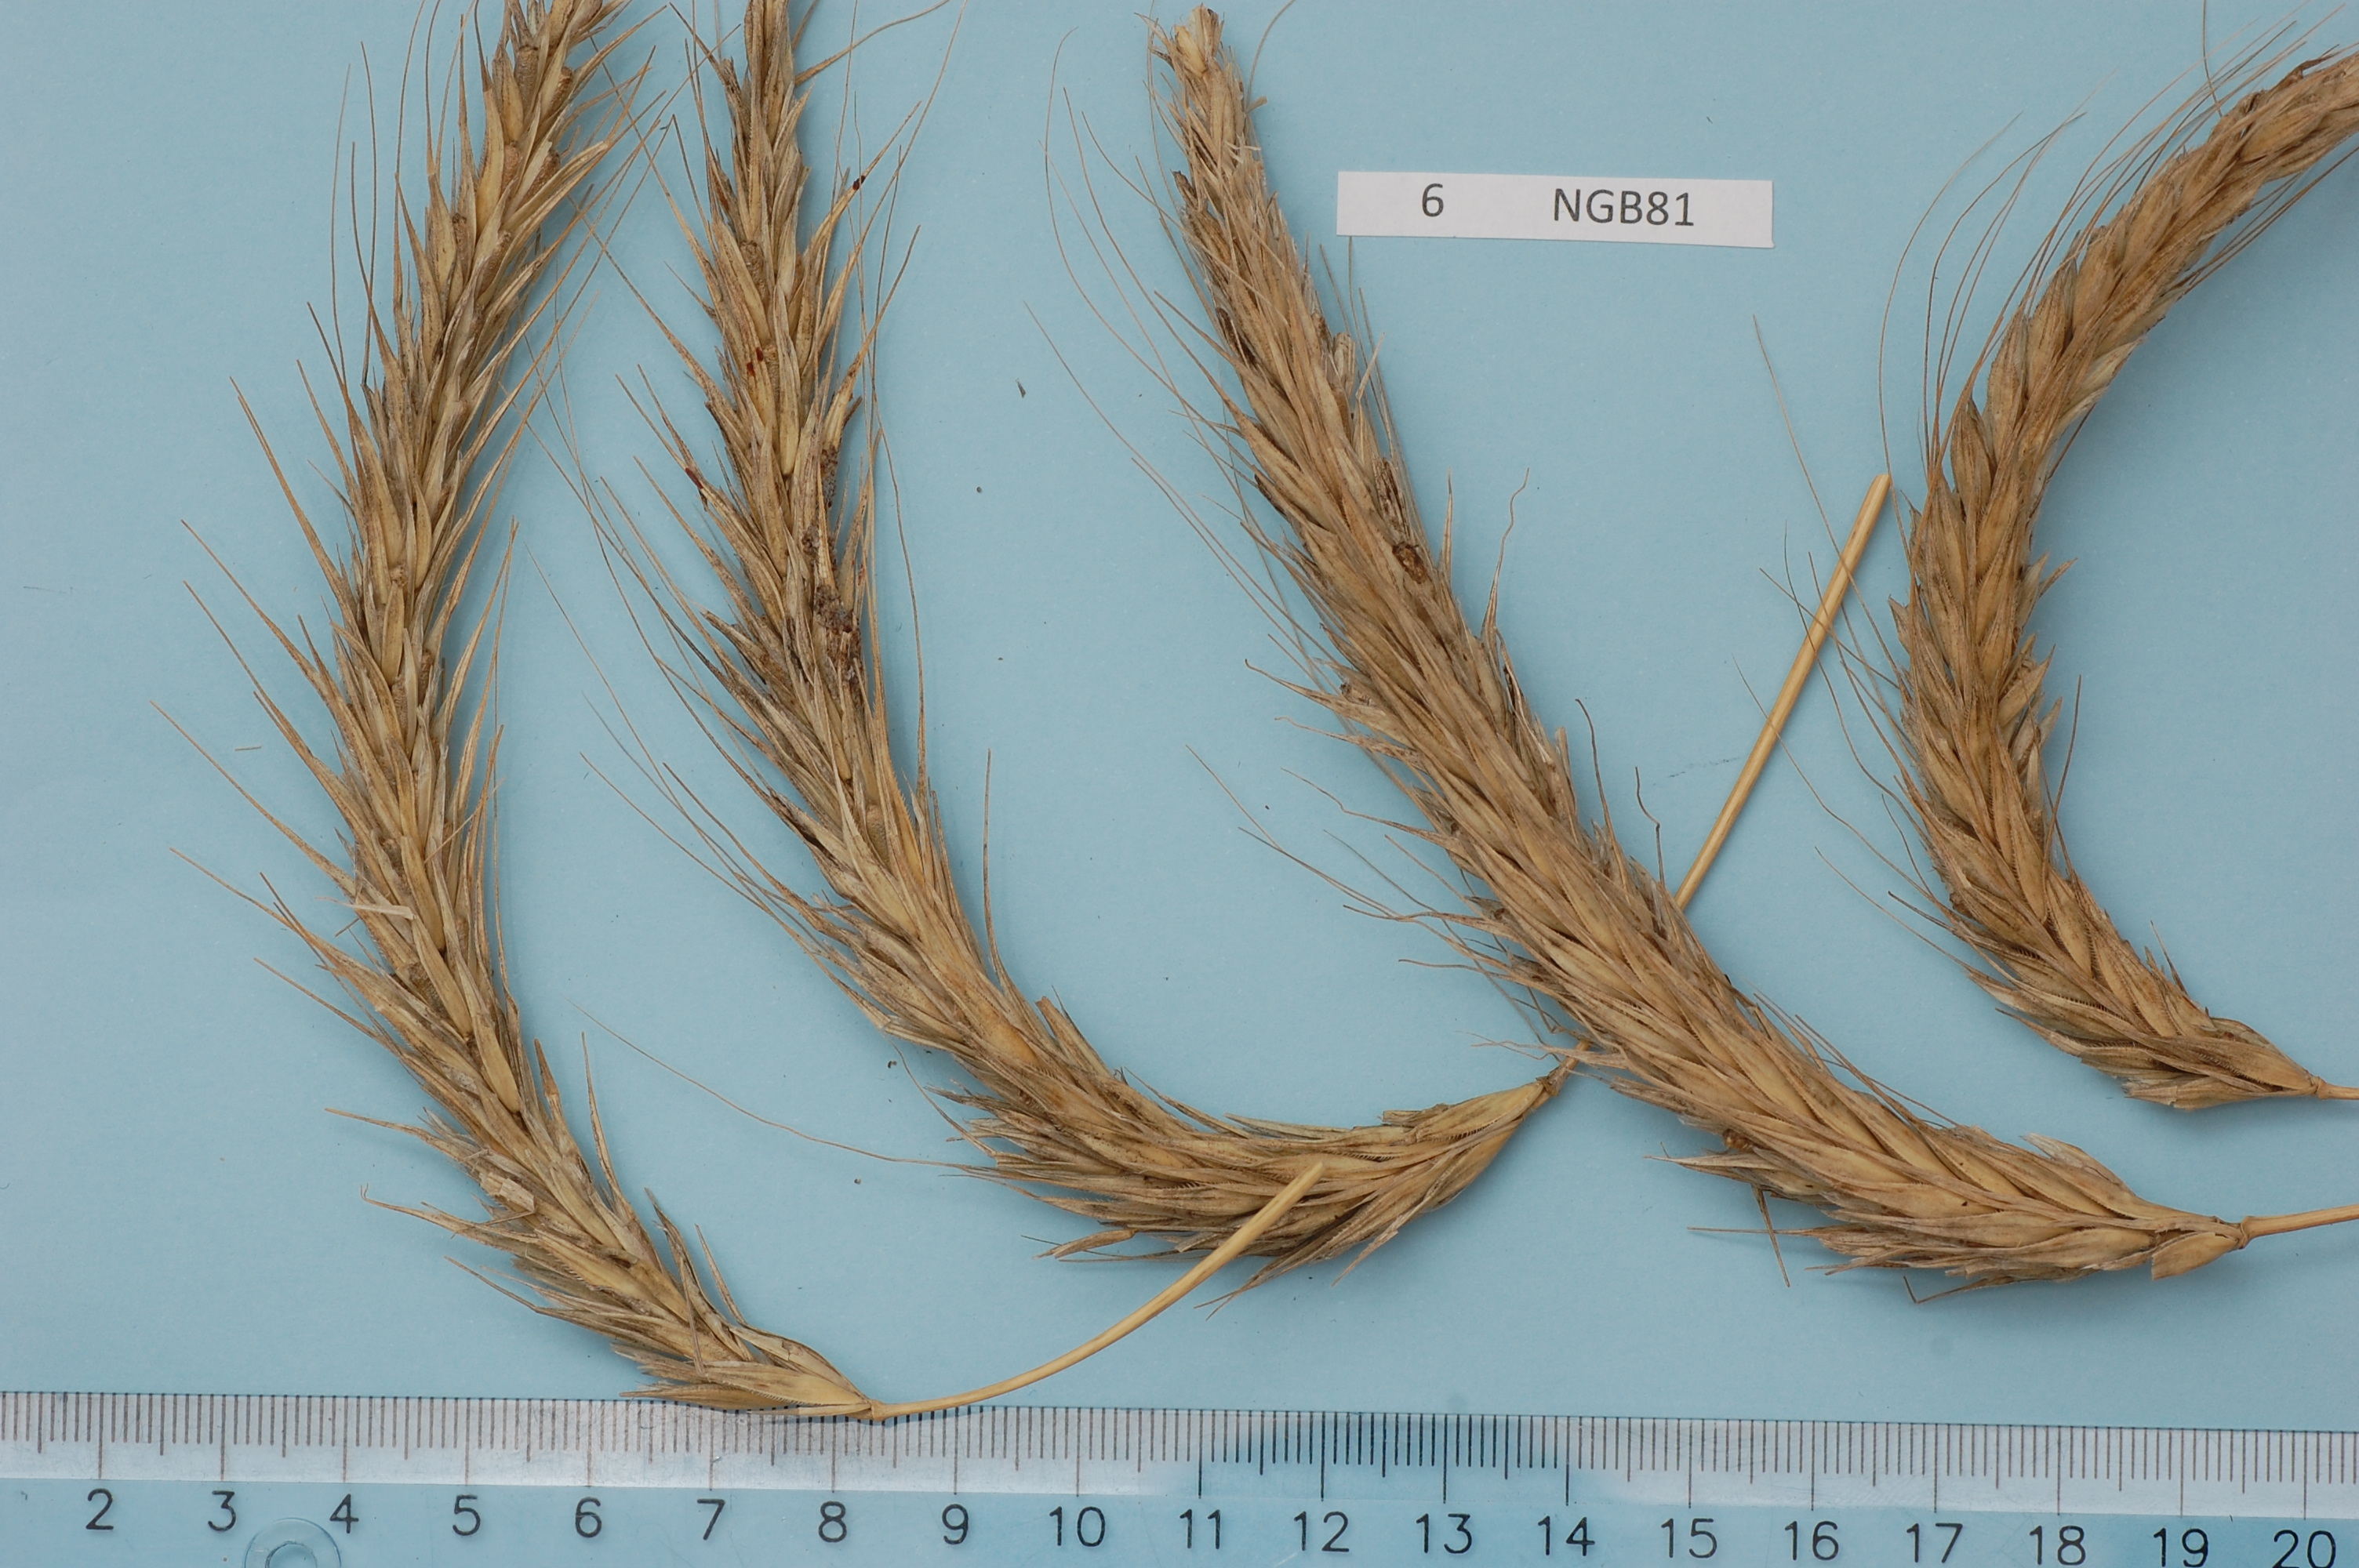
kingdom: Plantae
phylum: Tracheophyta
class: Liliopsida
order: Poales
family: Poaceae
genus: Secale
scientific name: Secale cereale
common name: Rye
